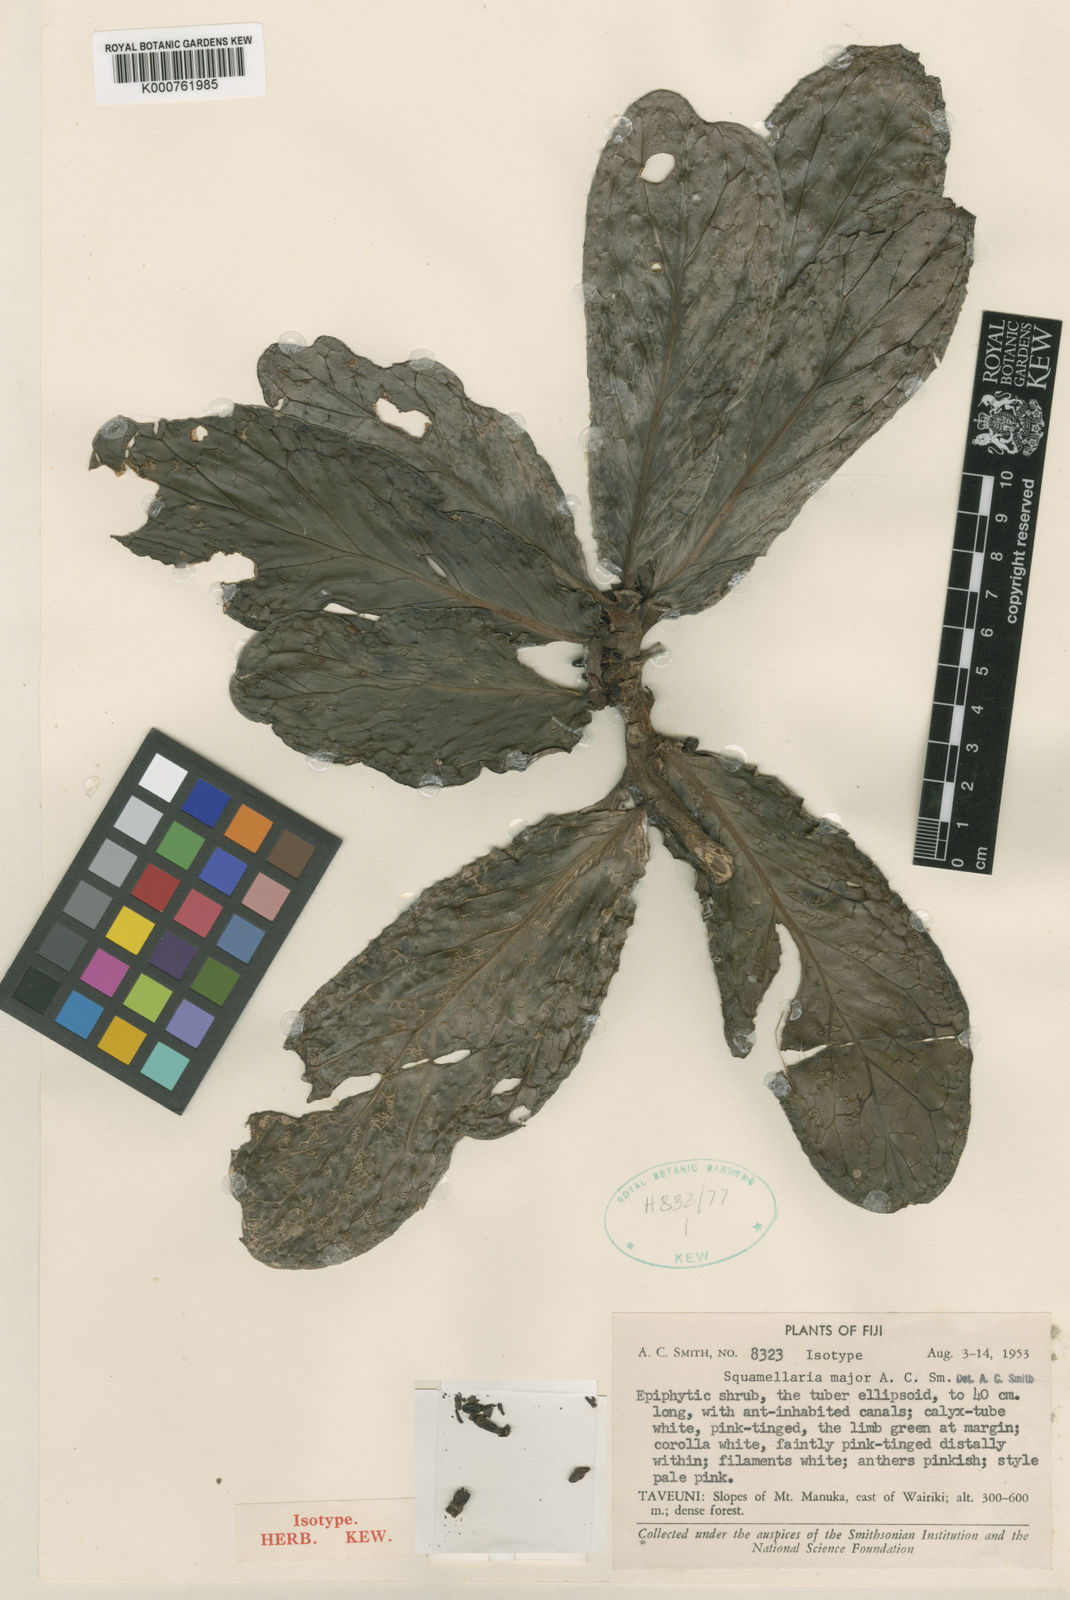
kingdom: Plantae
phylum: Tracheophyta
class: Magnoliopsida
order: Gentianales
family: Rubiaceae
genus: Squamellaria
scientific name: Squamellaria major
